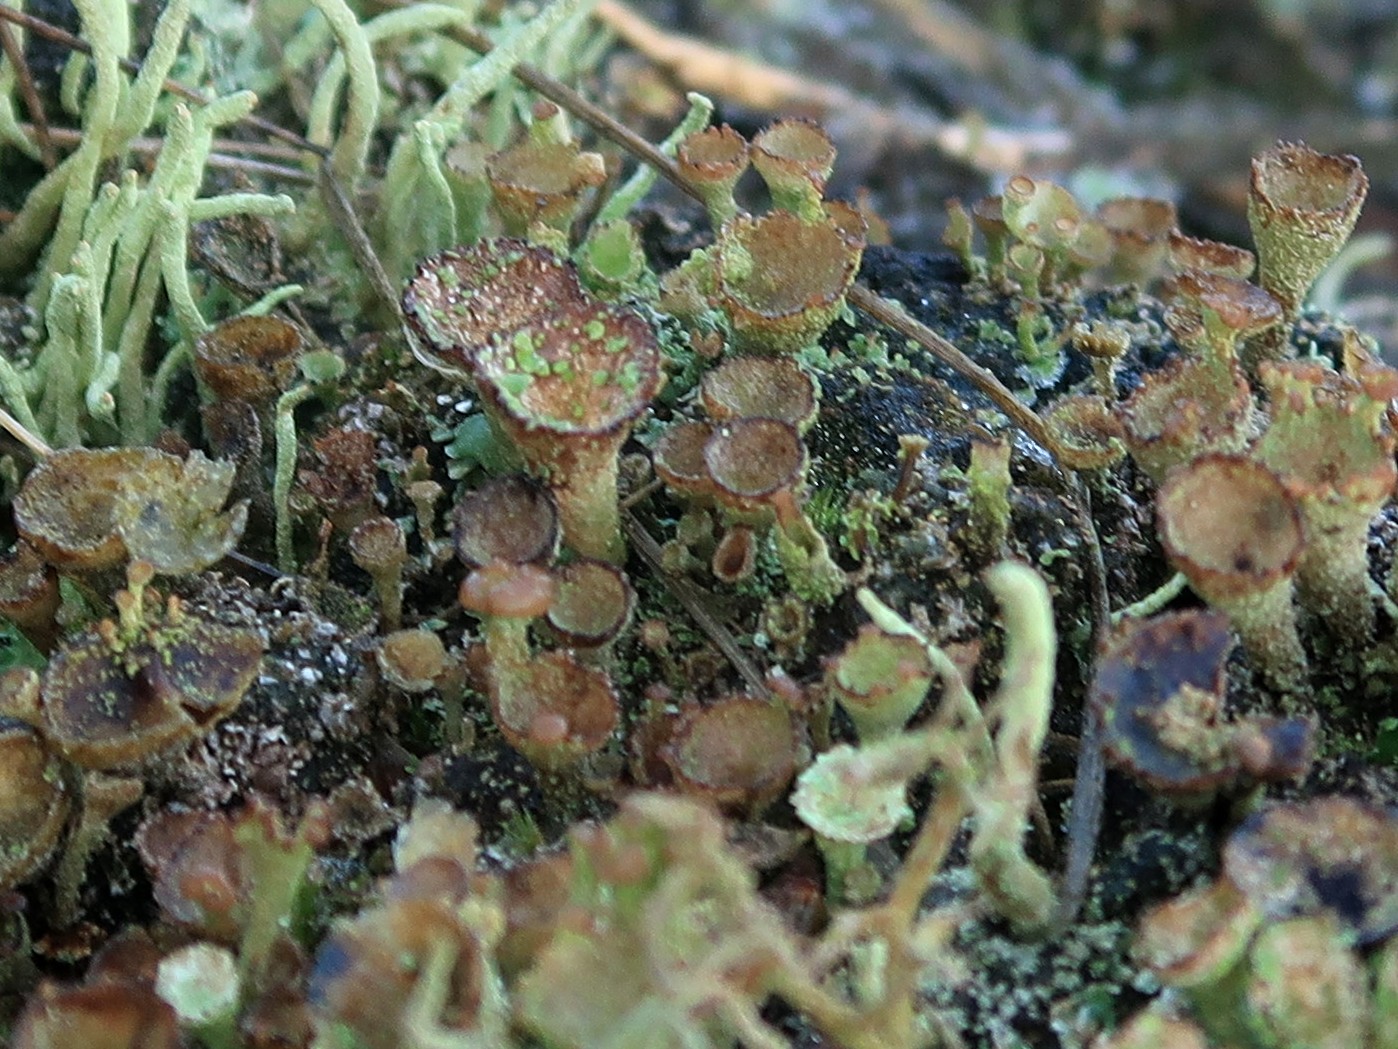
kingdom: Fungi
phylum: Ascomycota
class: Lecanoromycetes
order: Lecanorales
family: Cladoniaceae
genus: Cladonia
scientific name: Cladonia pyxidata
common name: tragt-bægerlav
